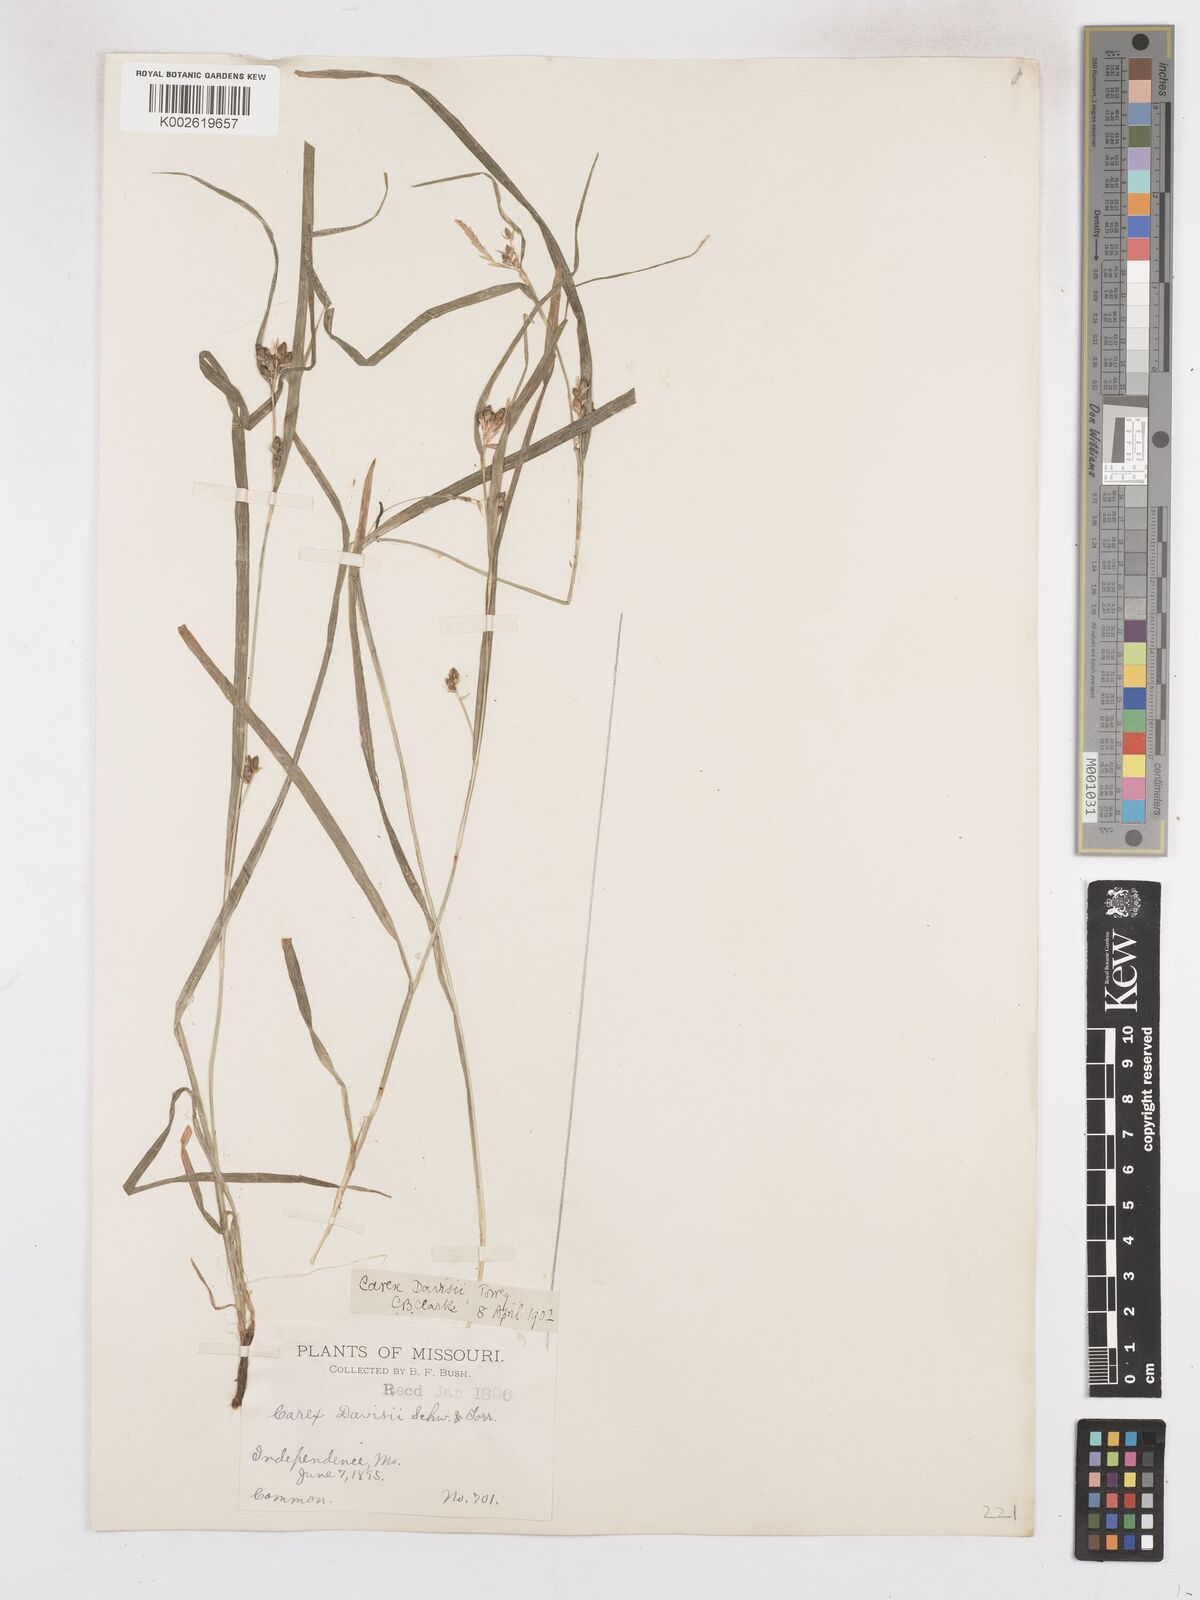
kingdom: Plantae
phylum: Tracheophyta
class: Liliopsida
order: Poales
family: Cyperaceae
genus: Carex
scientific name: Carex davisii
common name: Davis' sedge
